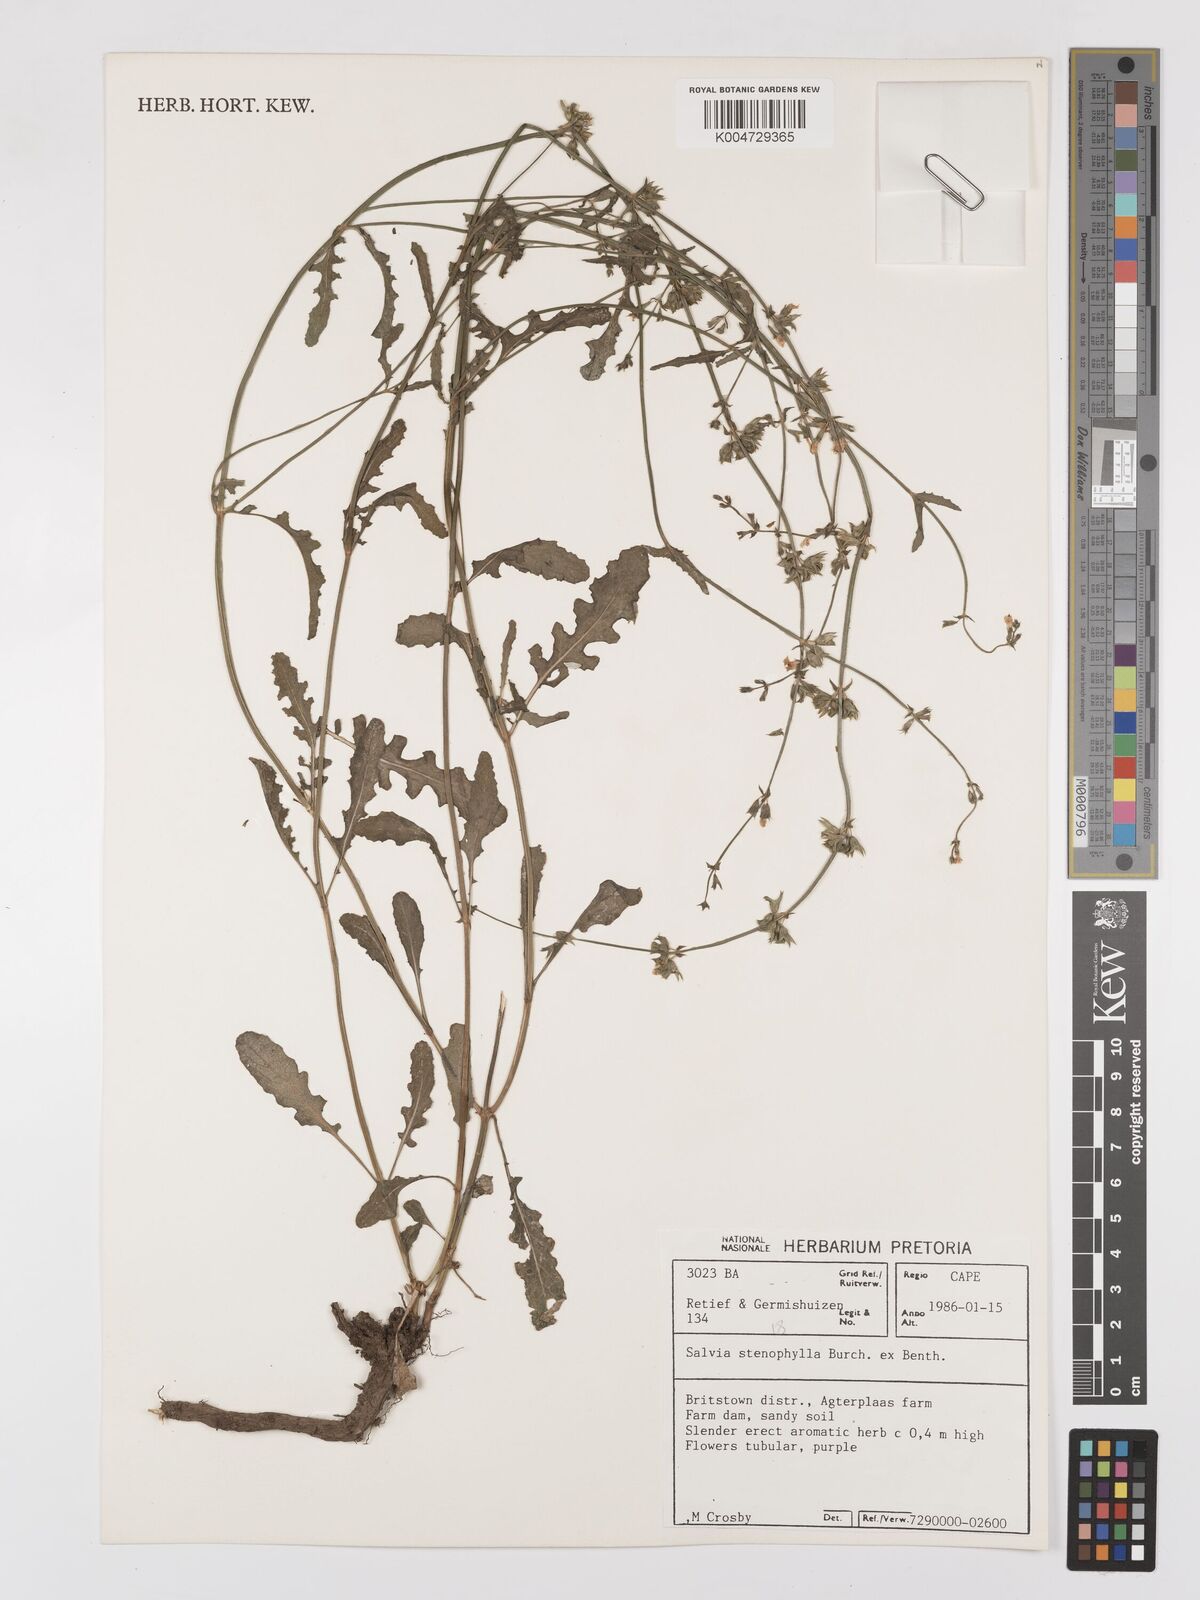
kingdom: Plantae
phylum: Tracheophyta
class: Magnoliopsida
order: Lamiales
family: Lamiaceae
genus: Salvia
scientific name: Salvia stenophylla
